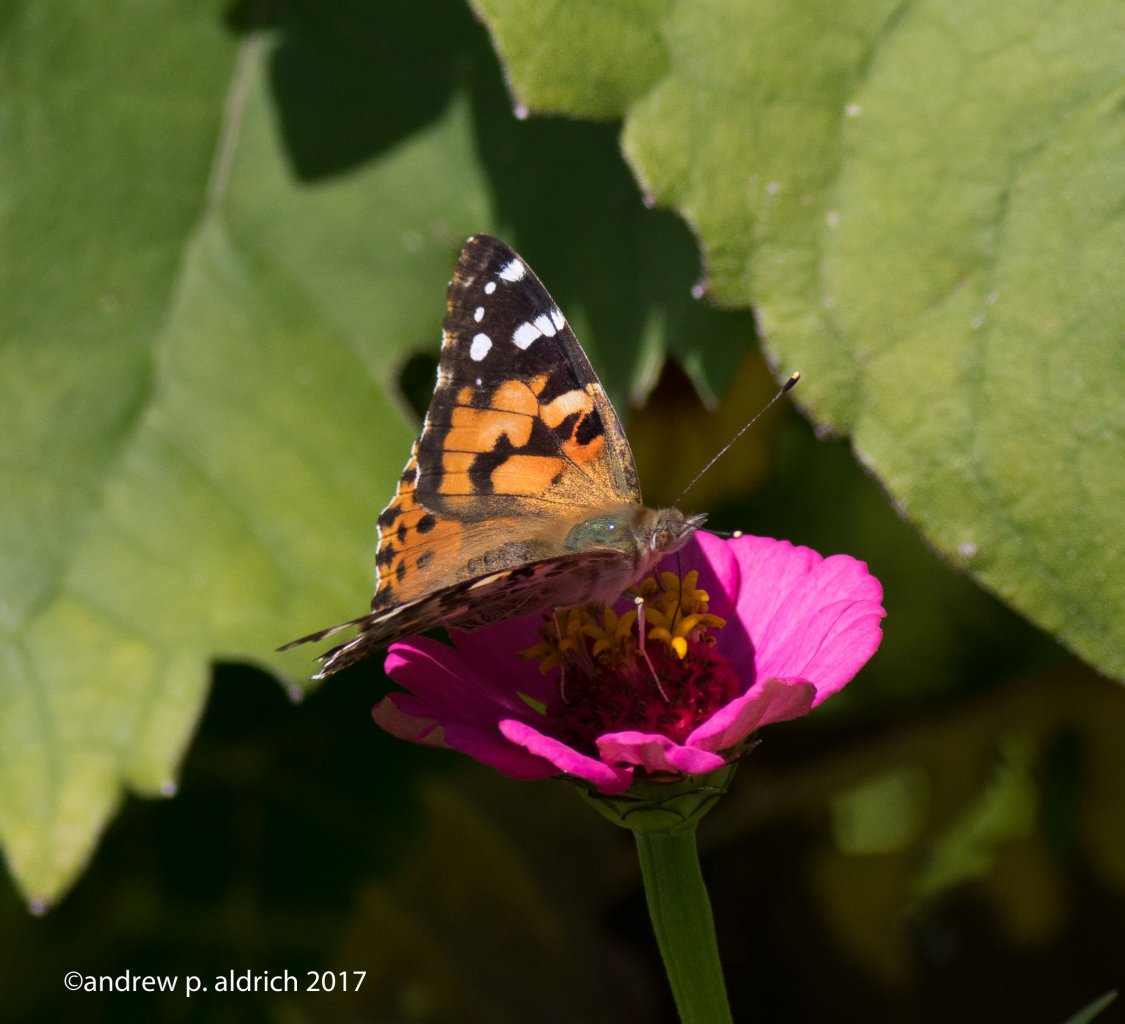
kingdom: Animalia
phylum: Arthropoda
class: Insecta
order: Lepidoptera
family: Nymphalidae
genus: Vanessa
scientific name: Vanessa cardui
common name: Painted Lady
